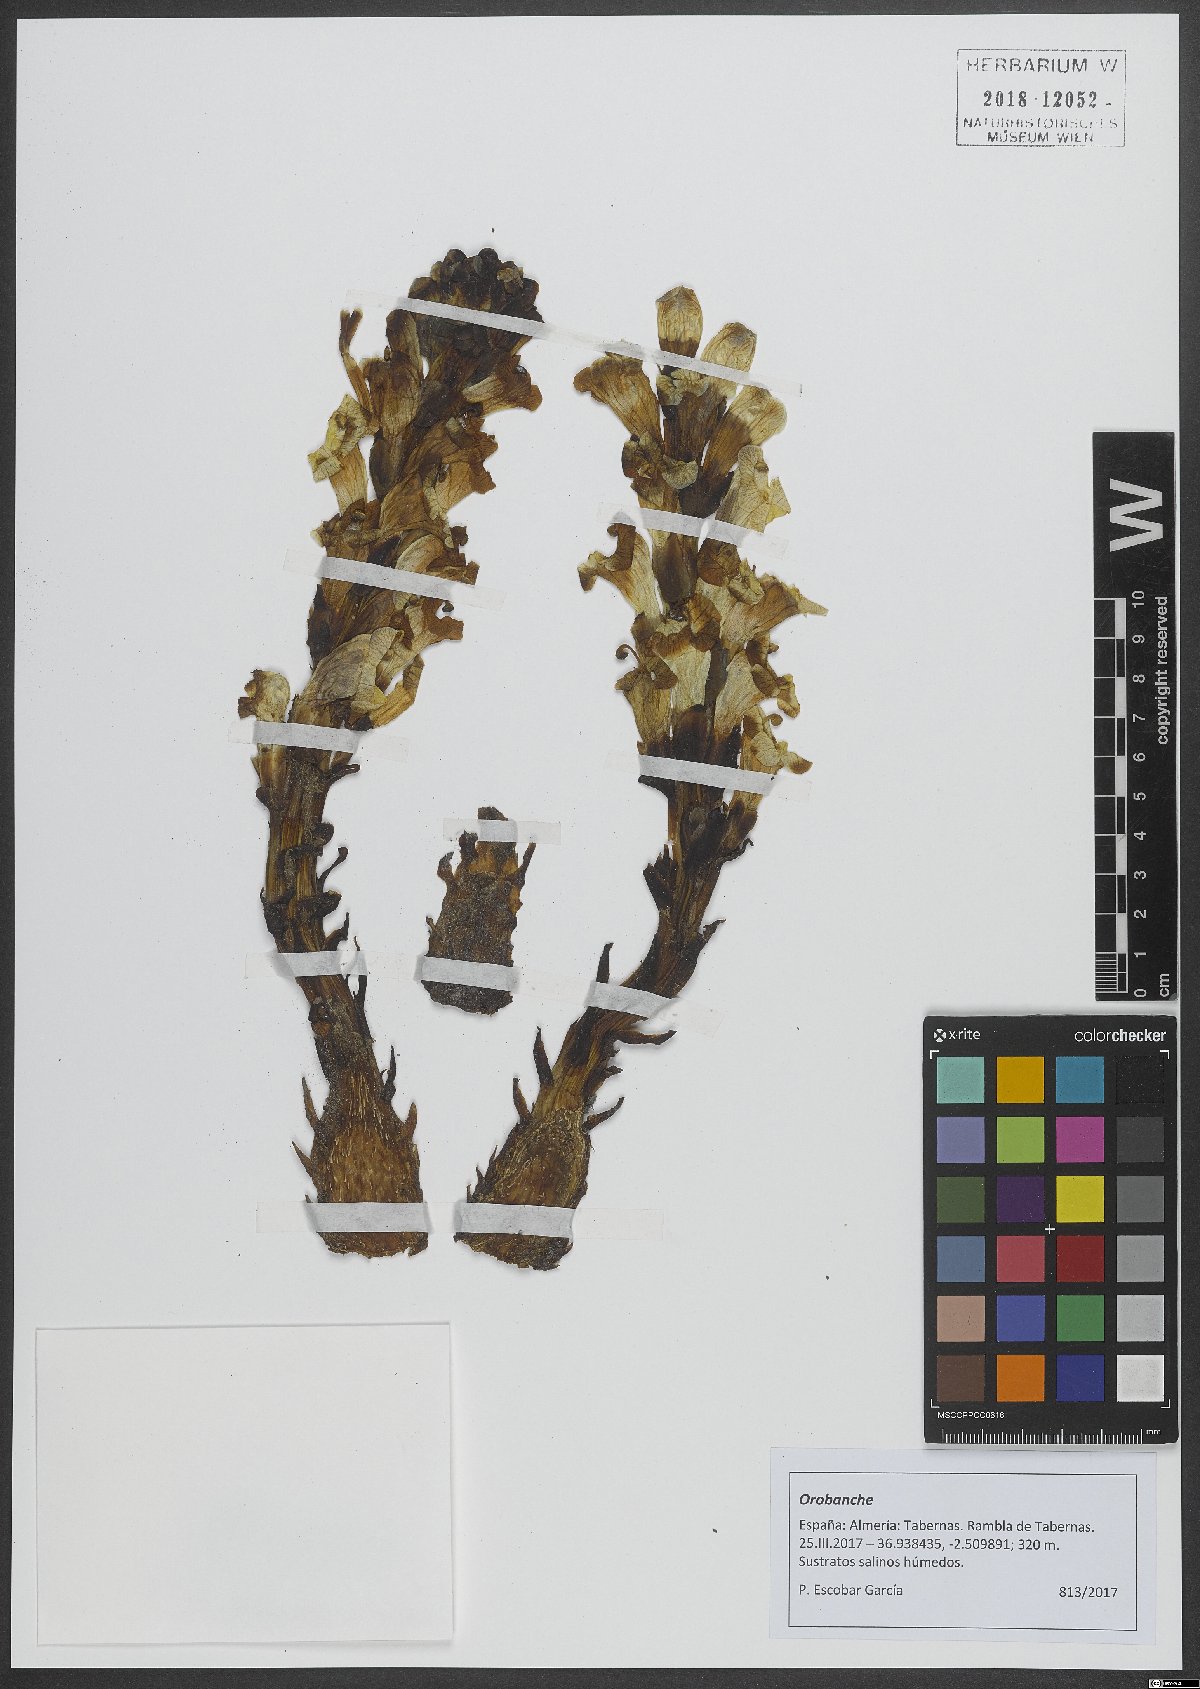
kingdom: Plantae
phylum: Tracheophyta
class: Magnoliopsida
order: Lamiales
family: Orobanchaceae
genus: Orobanche
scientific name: Orobanche
